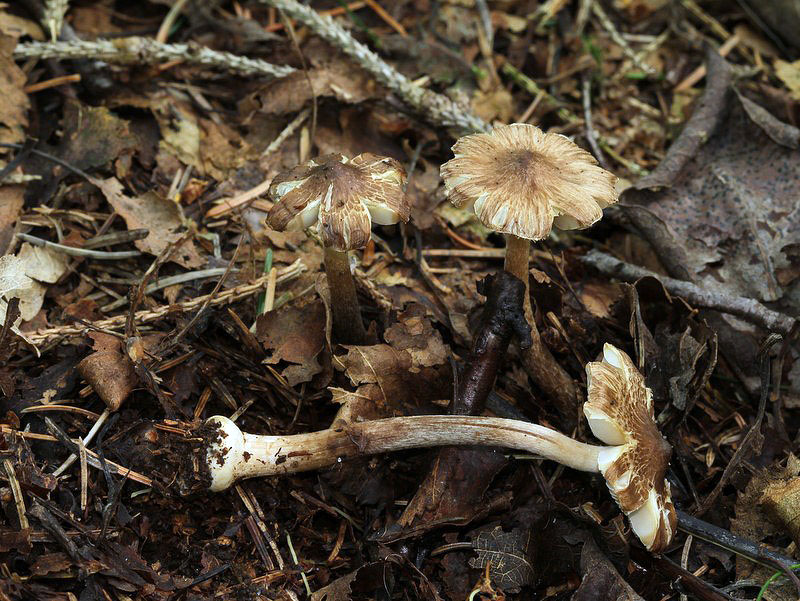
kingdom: Fungi
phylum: Basidiomycota
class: Agaricomycetes
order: Agaricales
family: Inocybaceae
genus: Inocybe
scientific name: Inocybe napipes
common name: roeknoldet trævlhat
